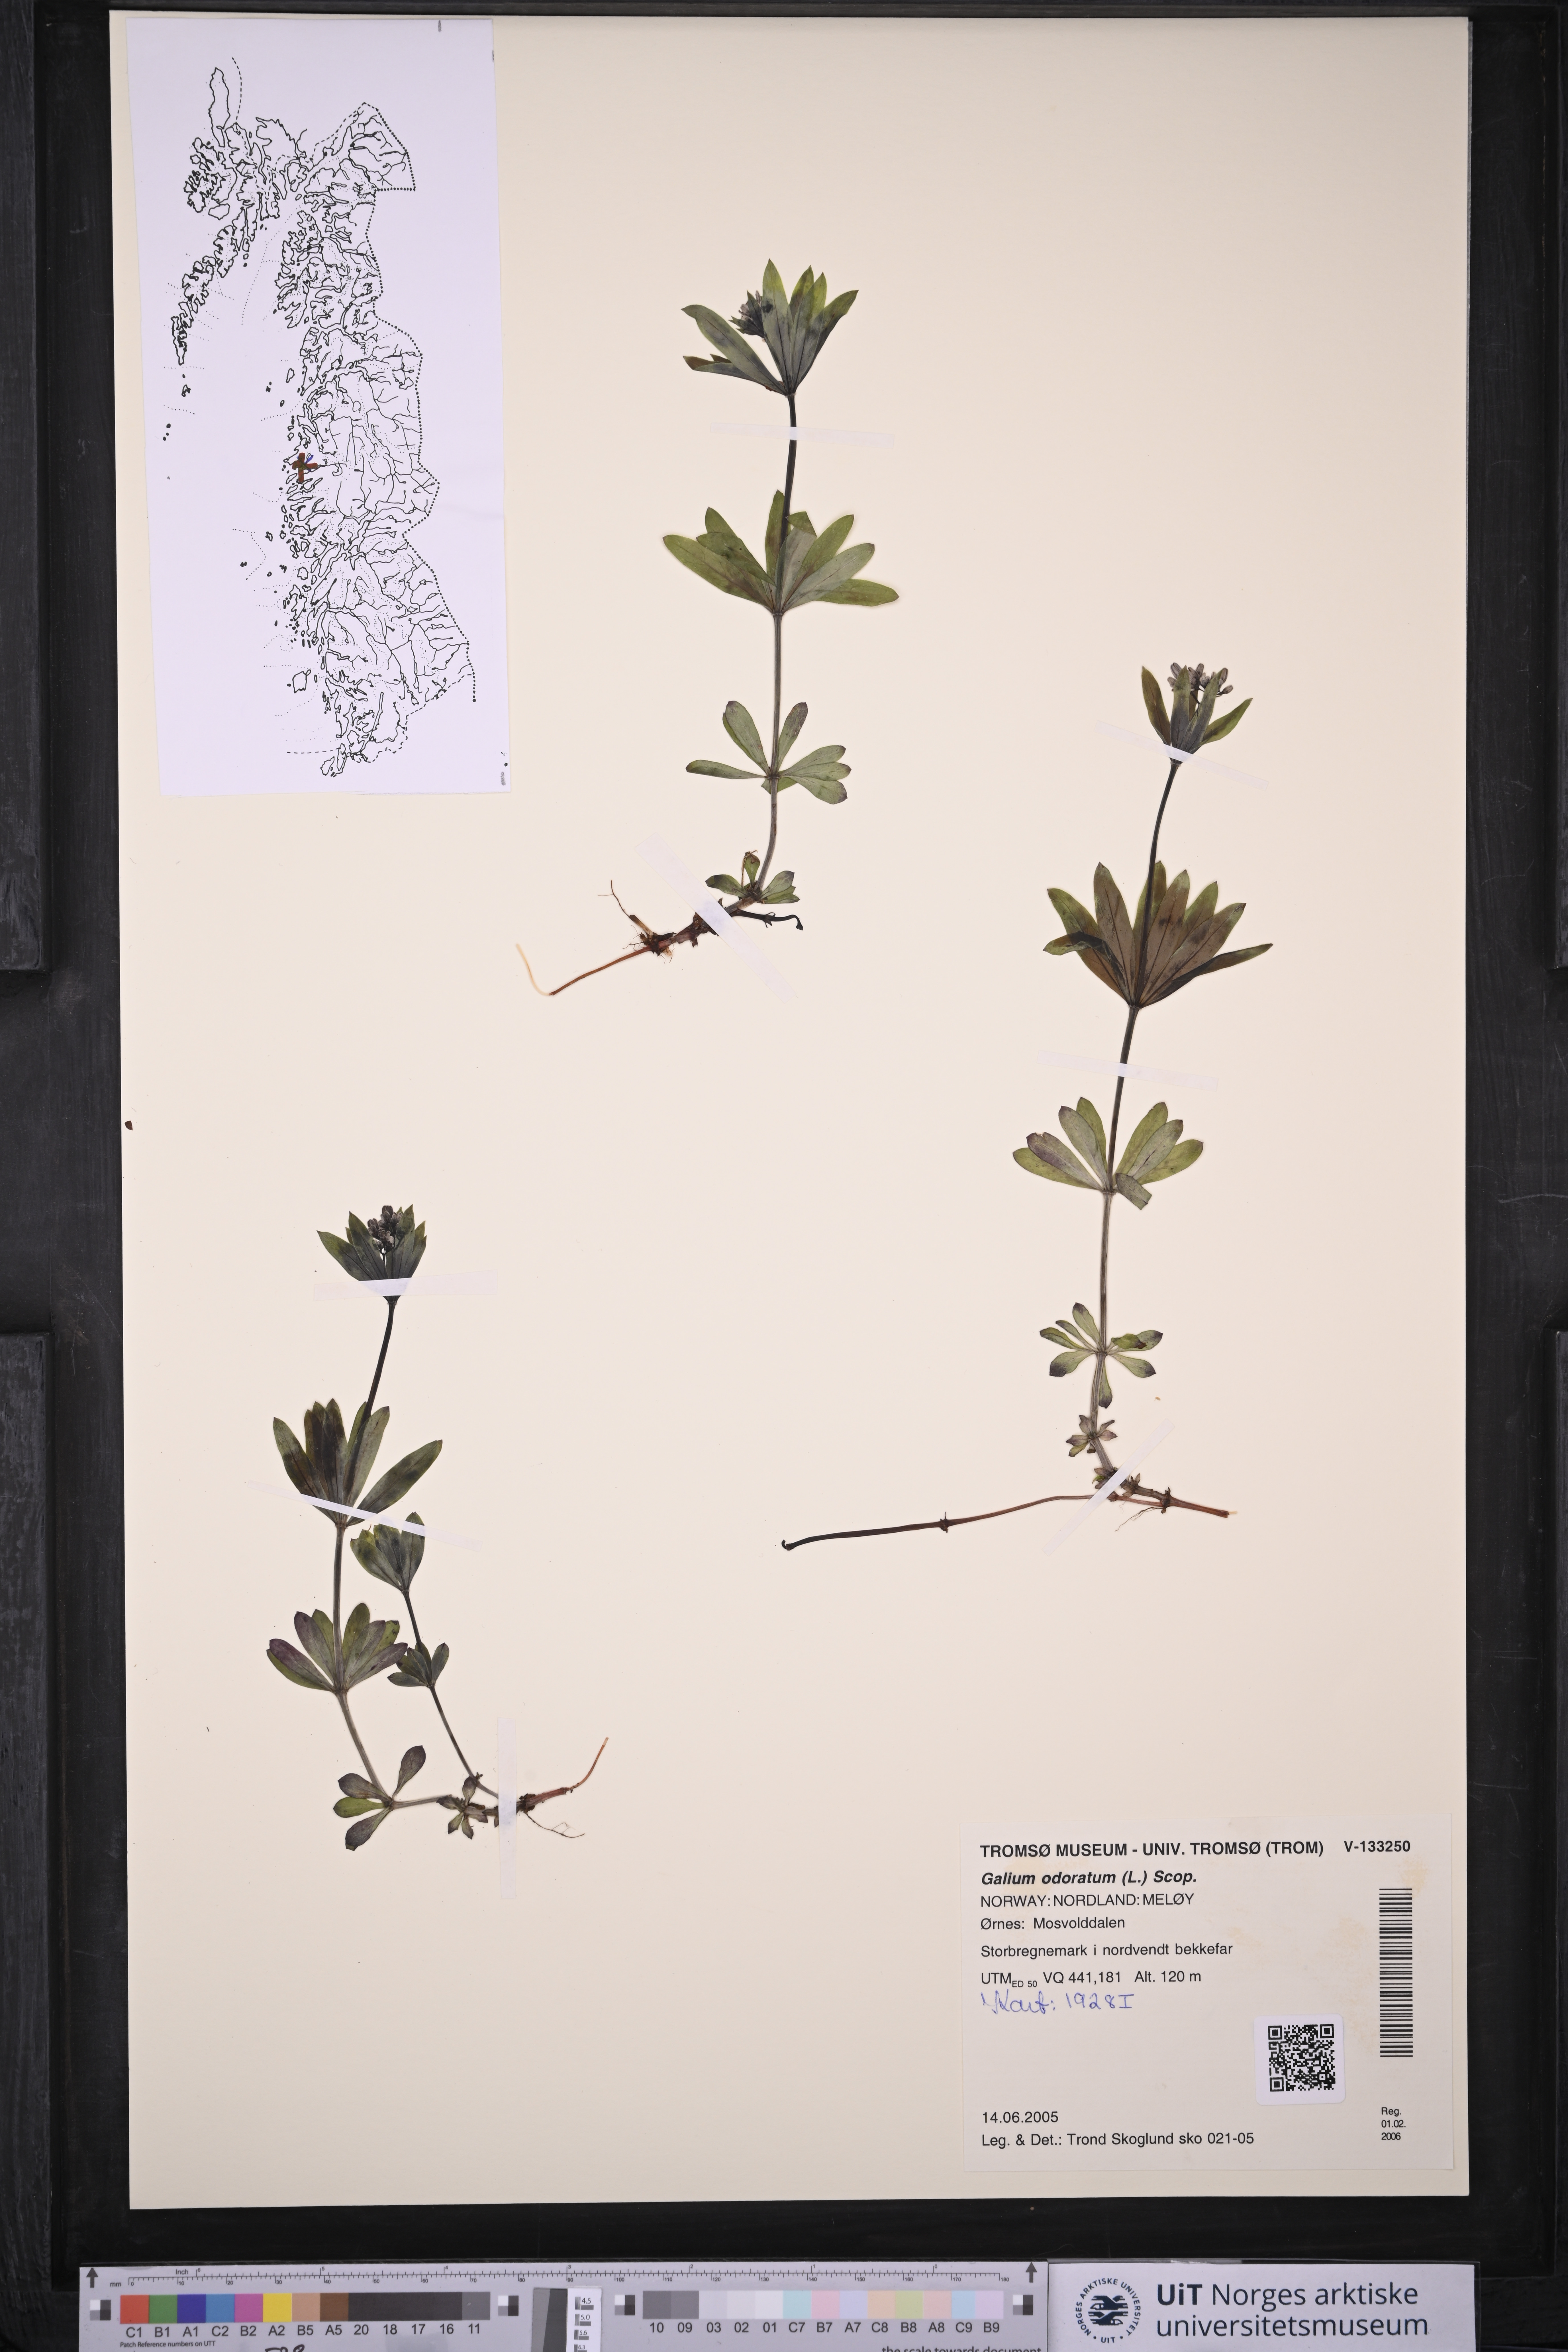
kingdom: Plantae
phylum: Tracheophyta
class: Magnoliopsida
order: Gentianales
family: Rubiaceae
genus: Galium
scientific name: Galium odoratum
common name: Sweet woodruff
